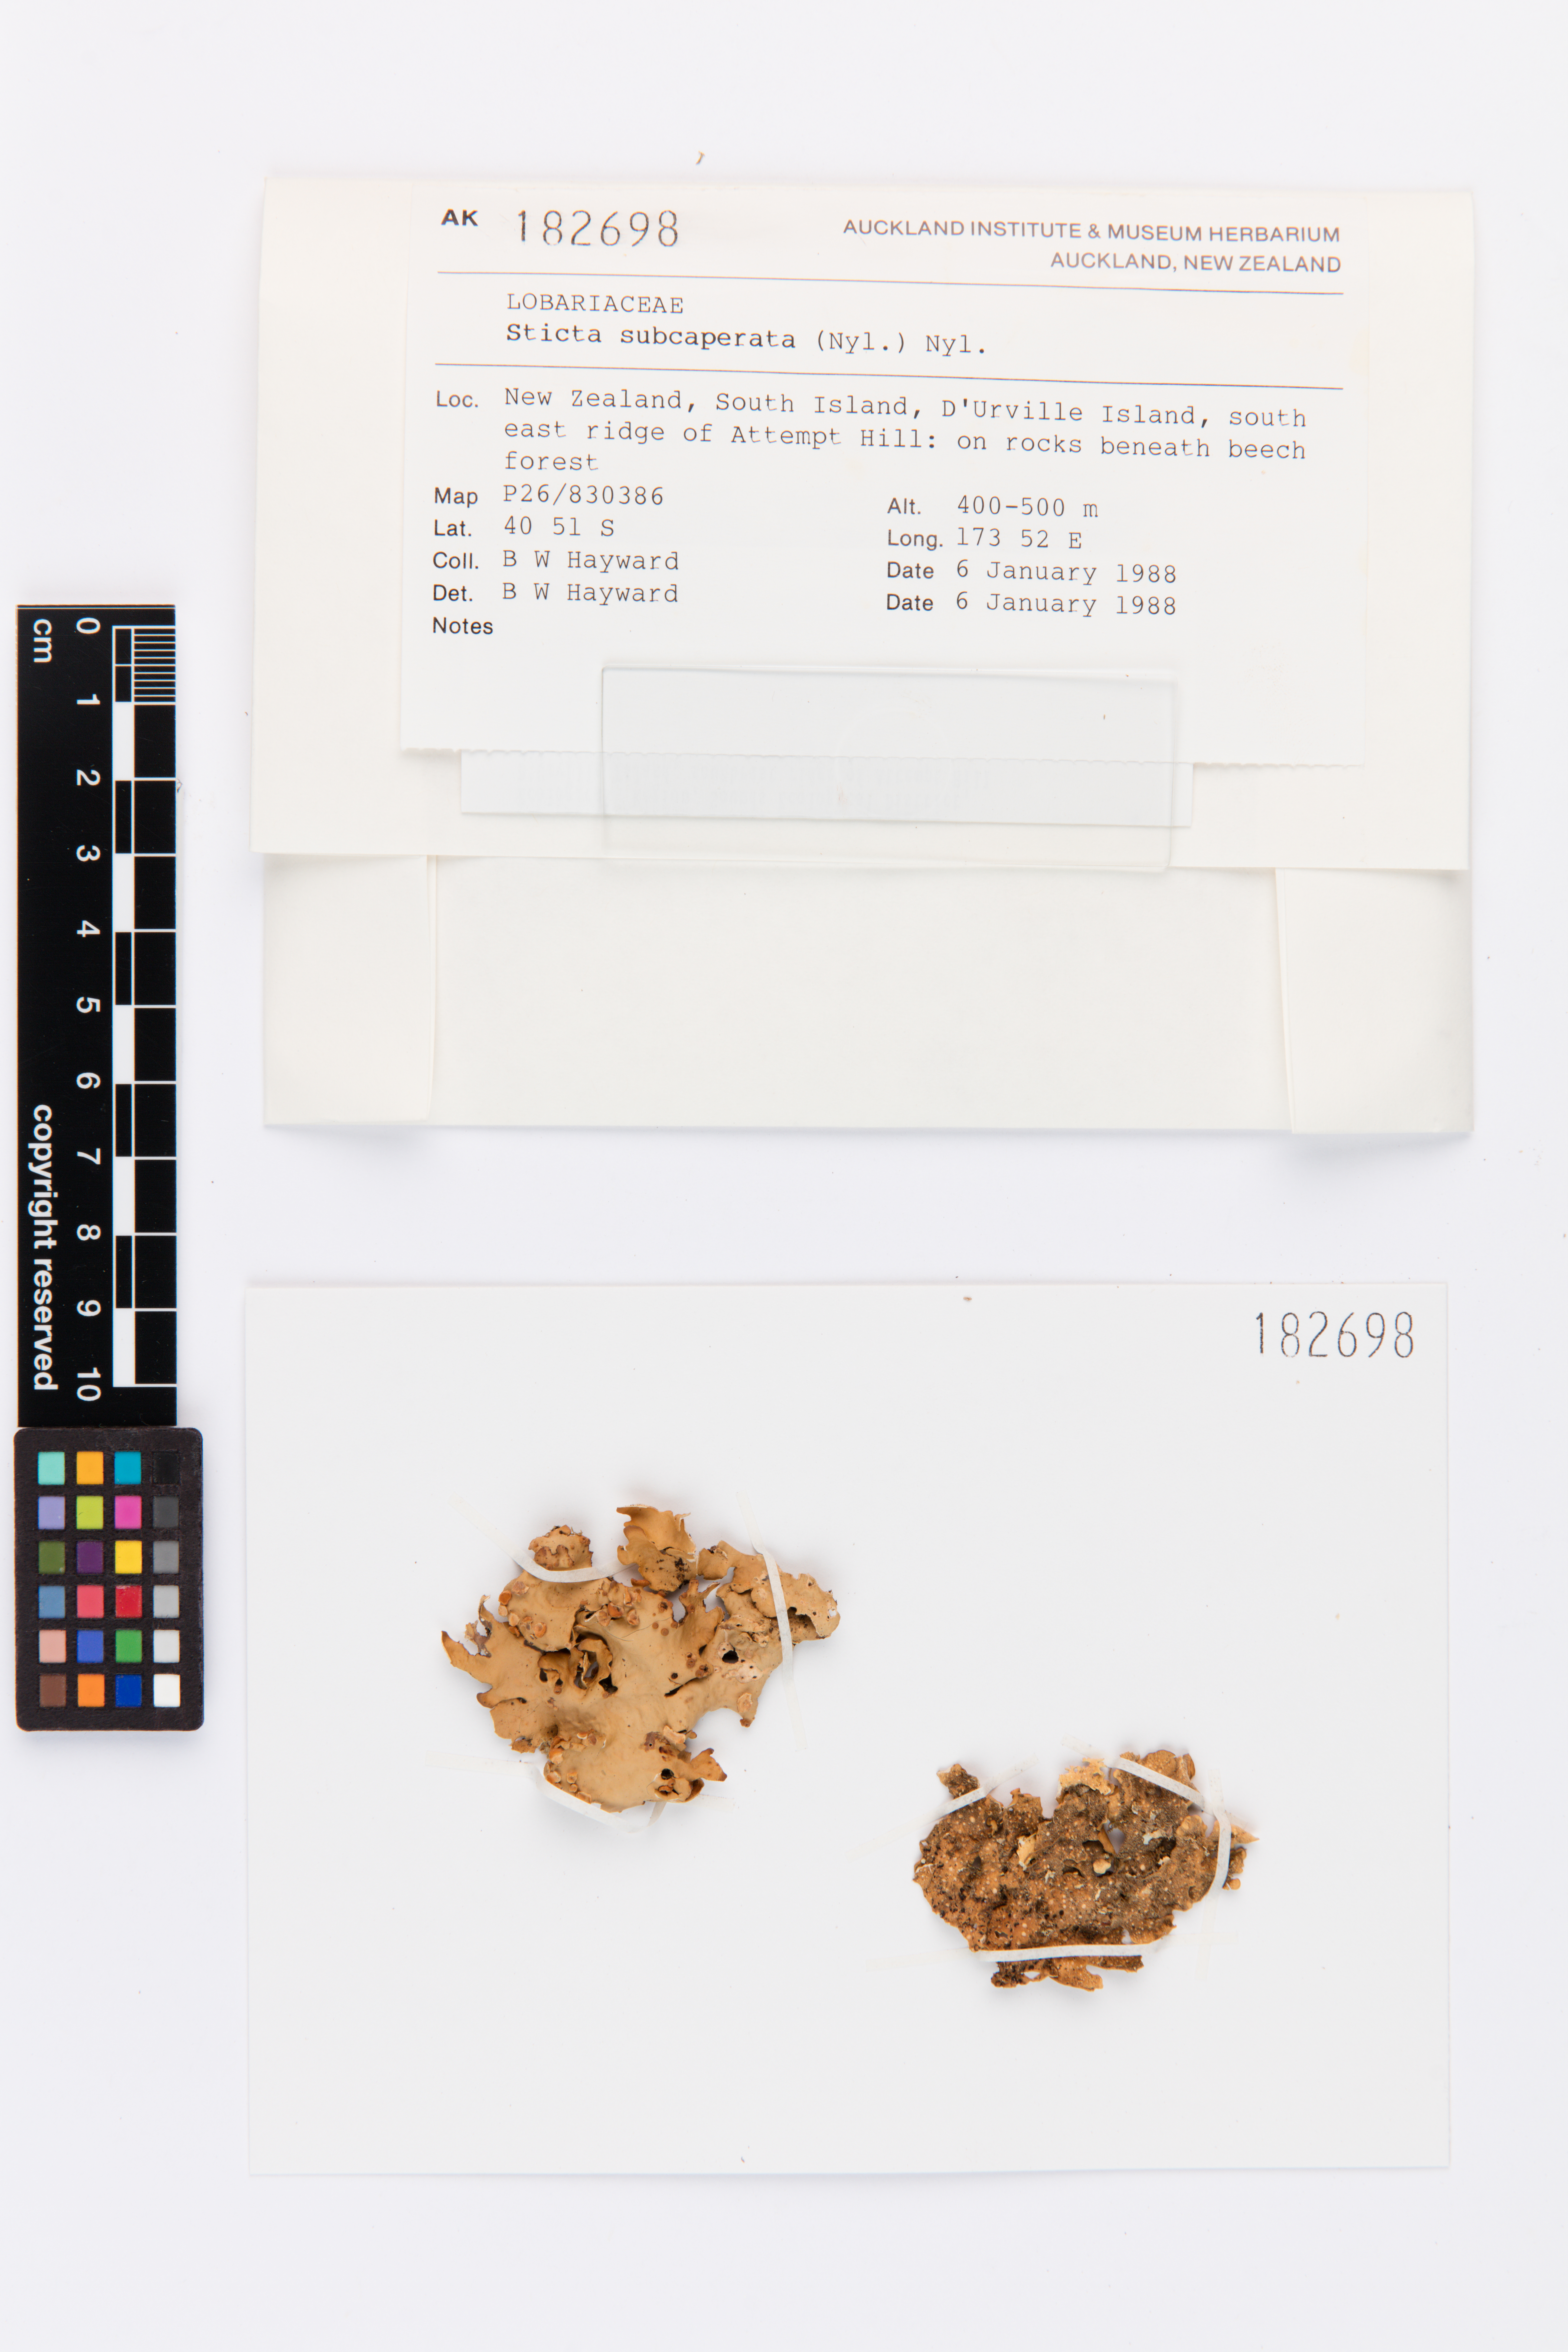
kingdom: Fungi
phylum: Ascomycota
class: Lecanoromycetes
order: Peltigerales
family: Lobariaceae
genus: Sticta
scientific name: Sticta subcaperata
